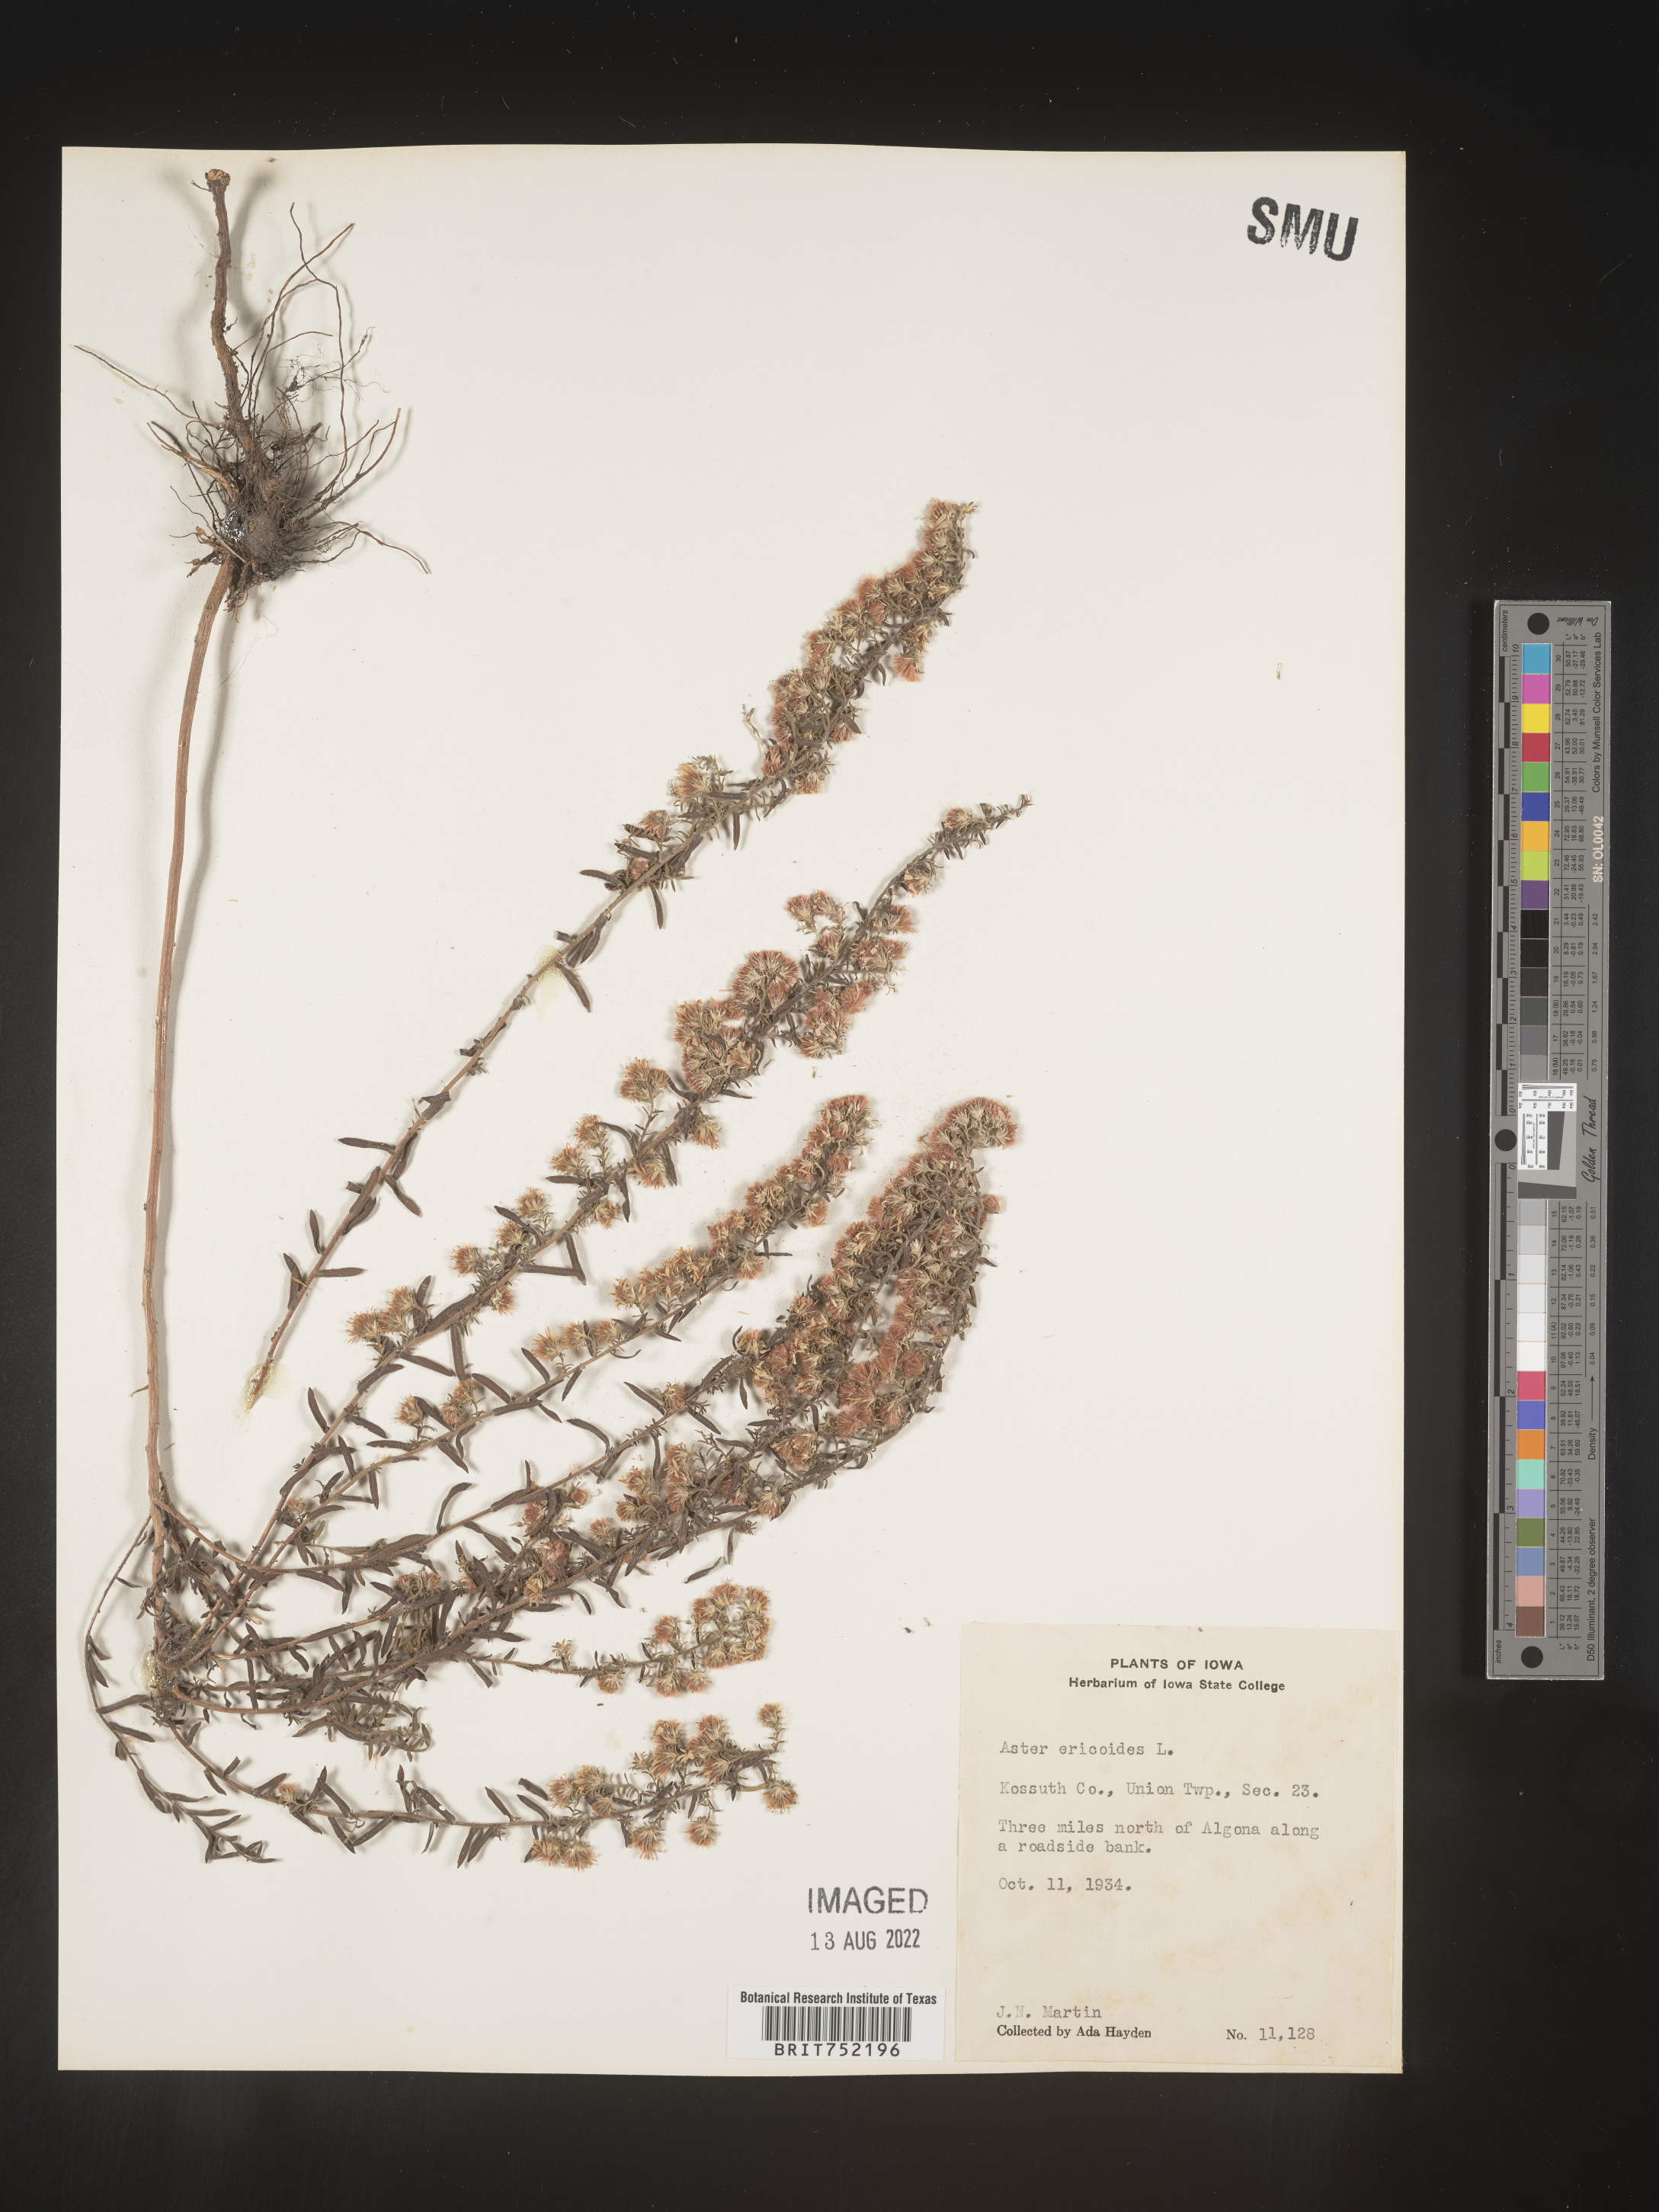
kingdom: Plantae
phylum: Tracheophyta
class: Magnoliopsida
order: Asterales
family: Asteraceae
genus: Symphyotrichum
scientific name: Symphyotrichum ericoides
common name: Heath aster
